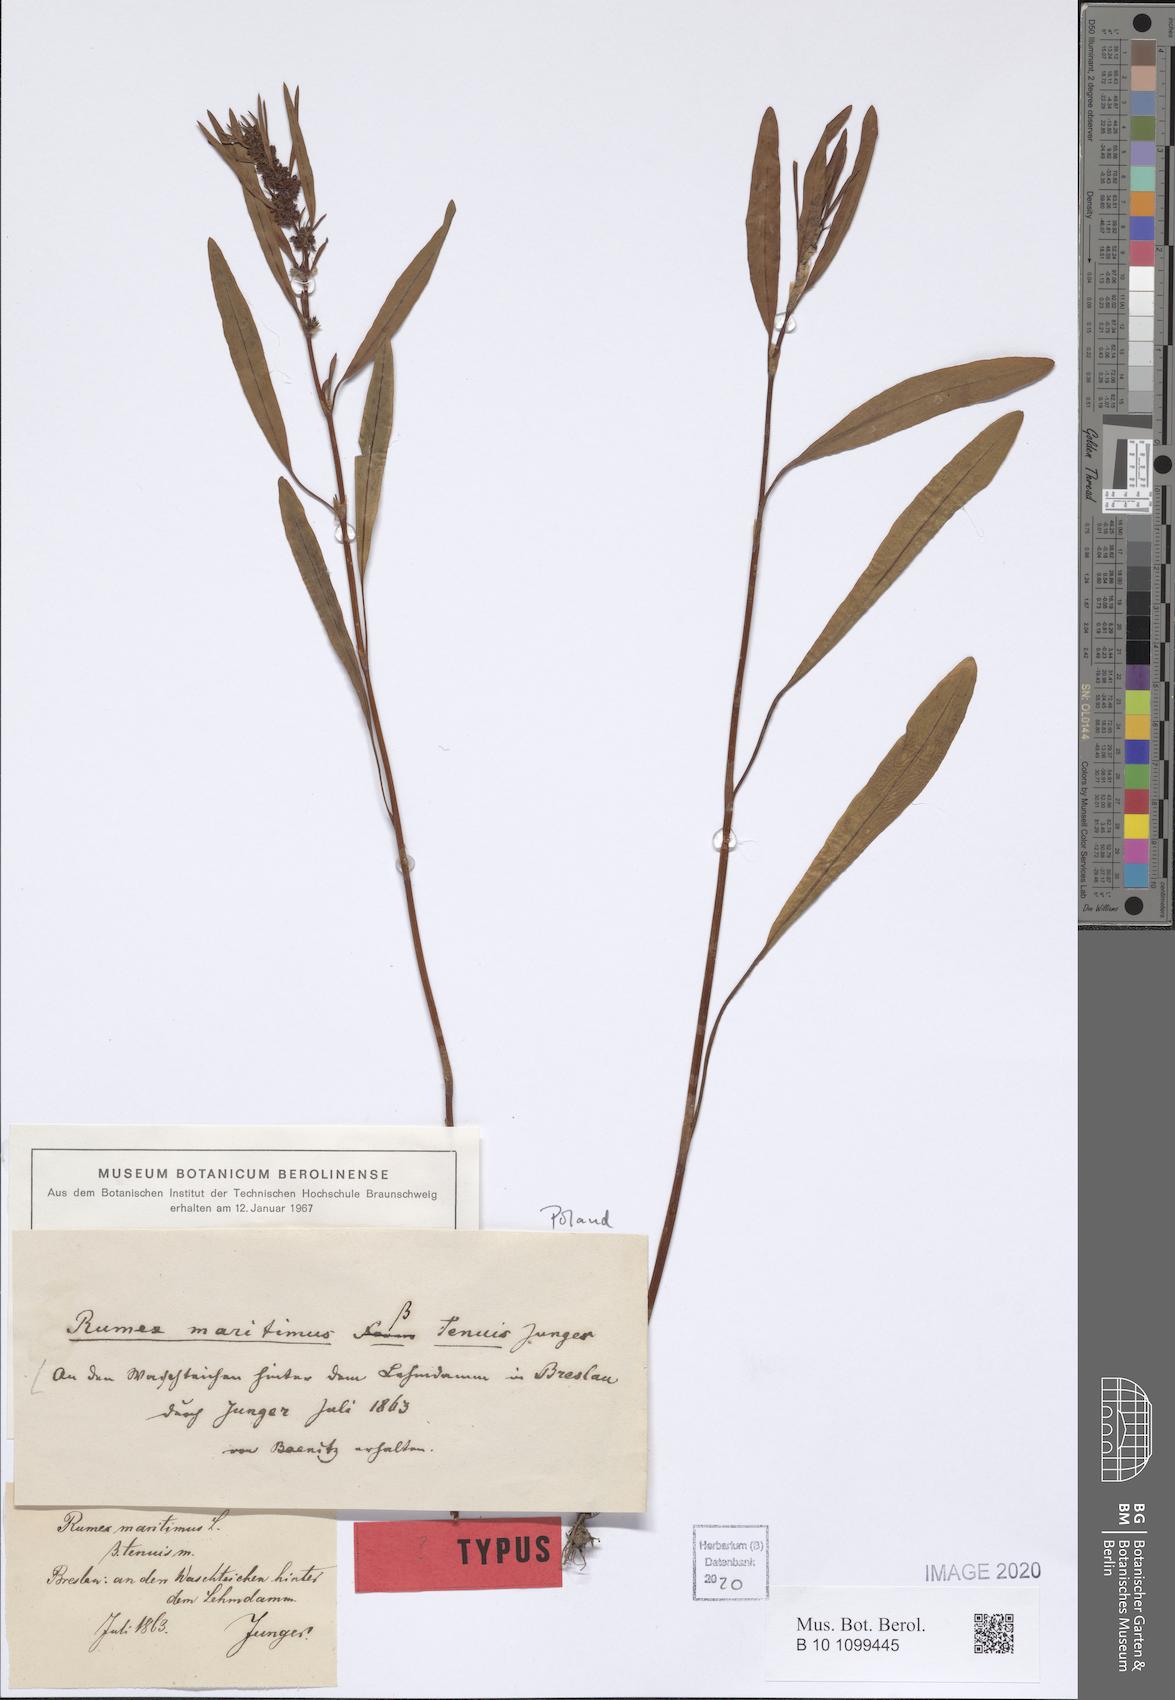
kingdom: Plantae
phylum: Tracheophyta
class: Magnoliopsida
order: Caryophyllales
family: Polygonaceae
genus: Rumex
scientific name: Rumex maritimus
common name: Golden dock
